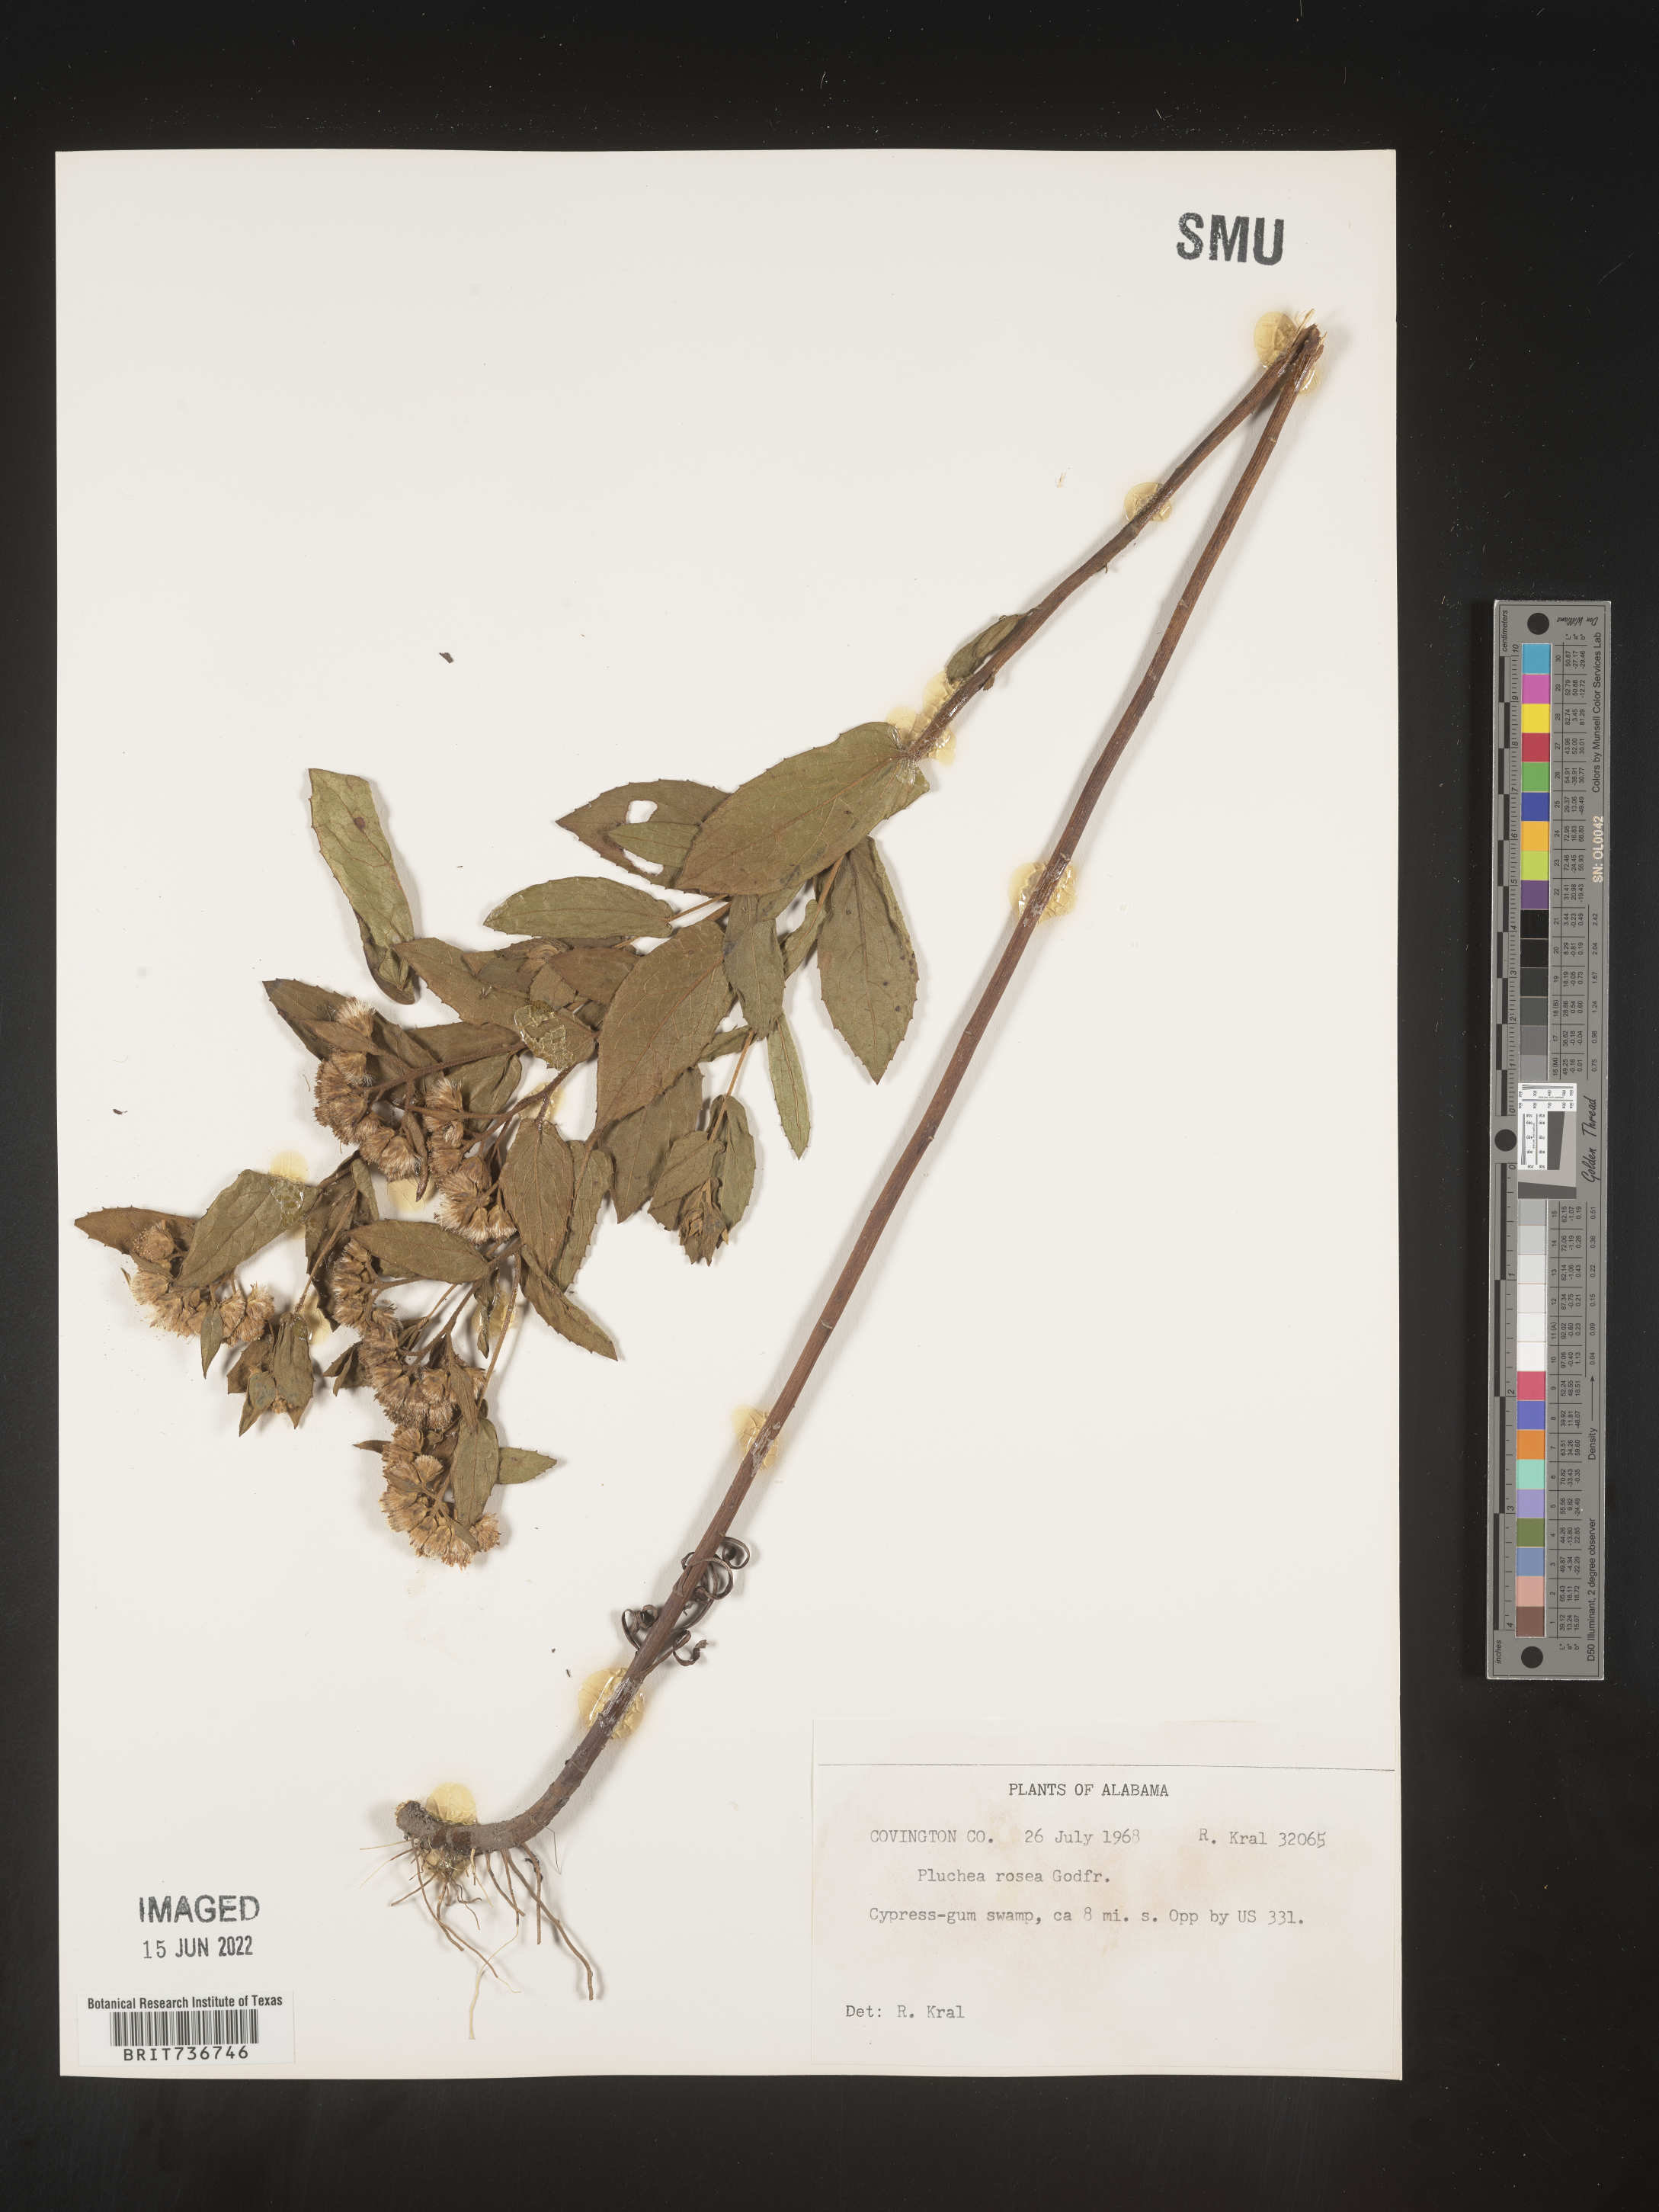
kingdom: Plantae
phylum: Tracheophyta
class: Magnoliopsida
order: Asterales
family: Asteraceae
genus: Pluchea
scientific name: Pluchea baccharis
